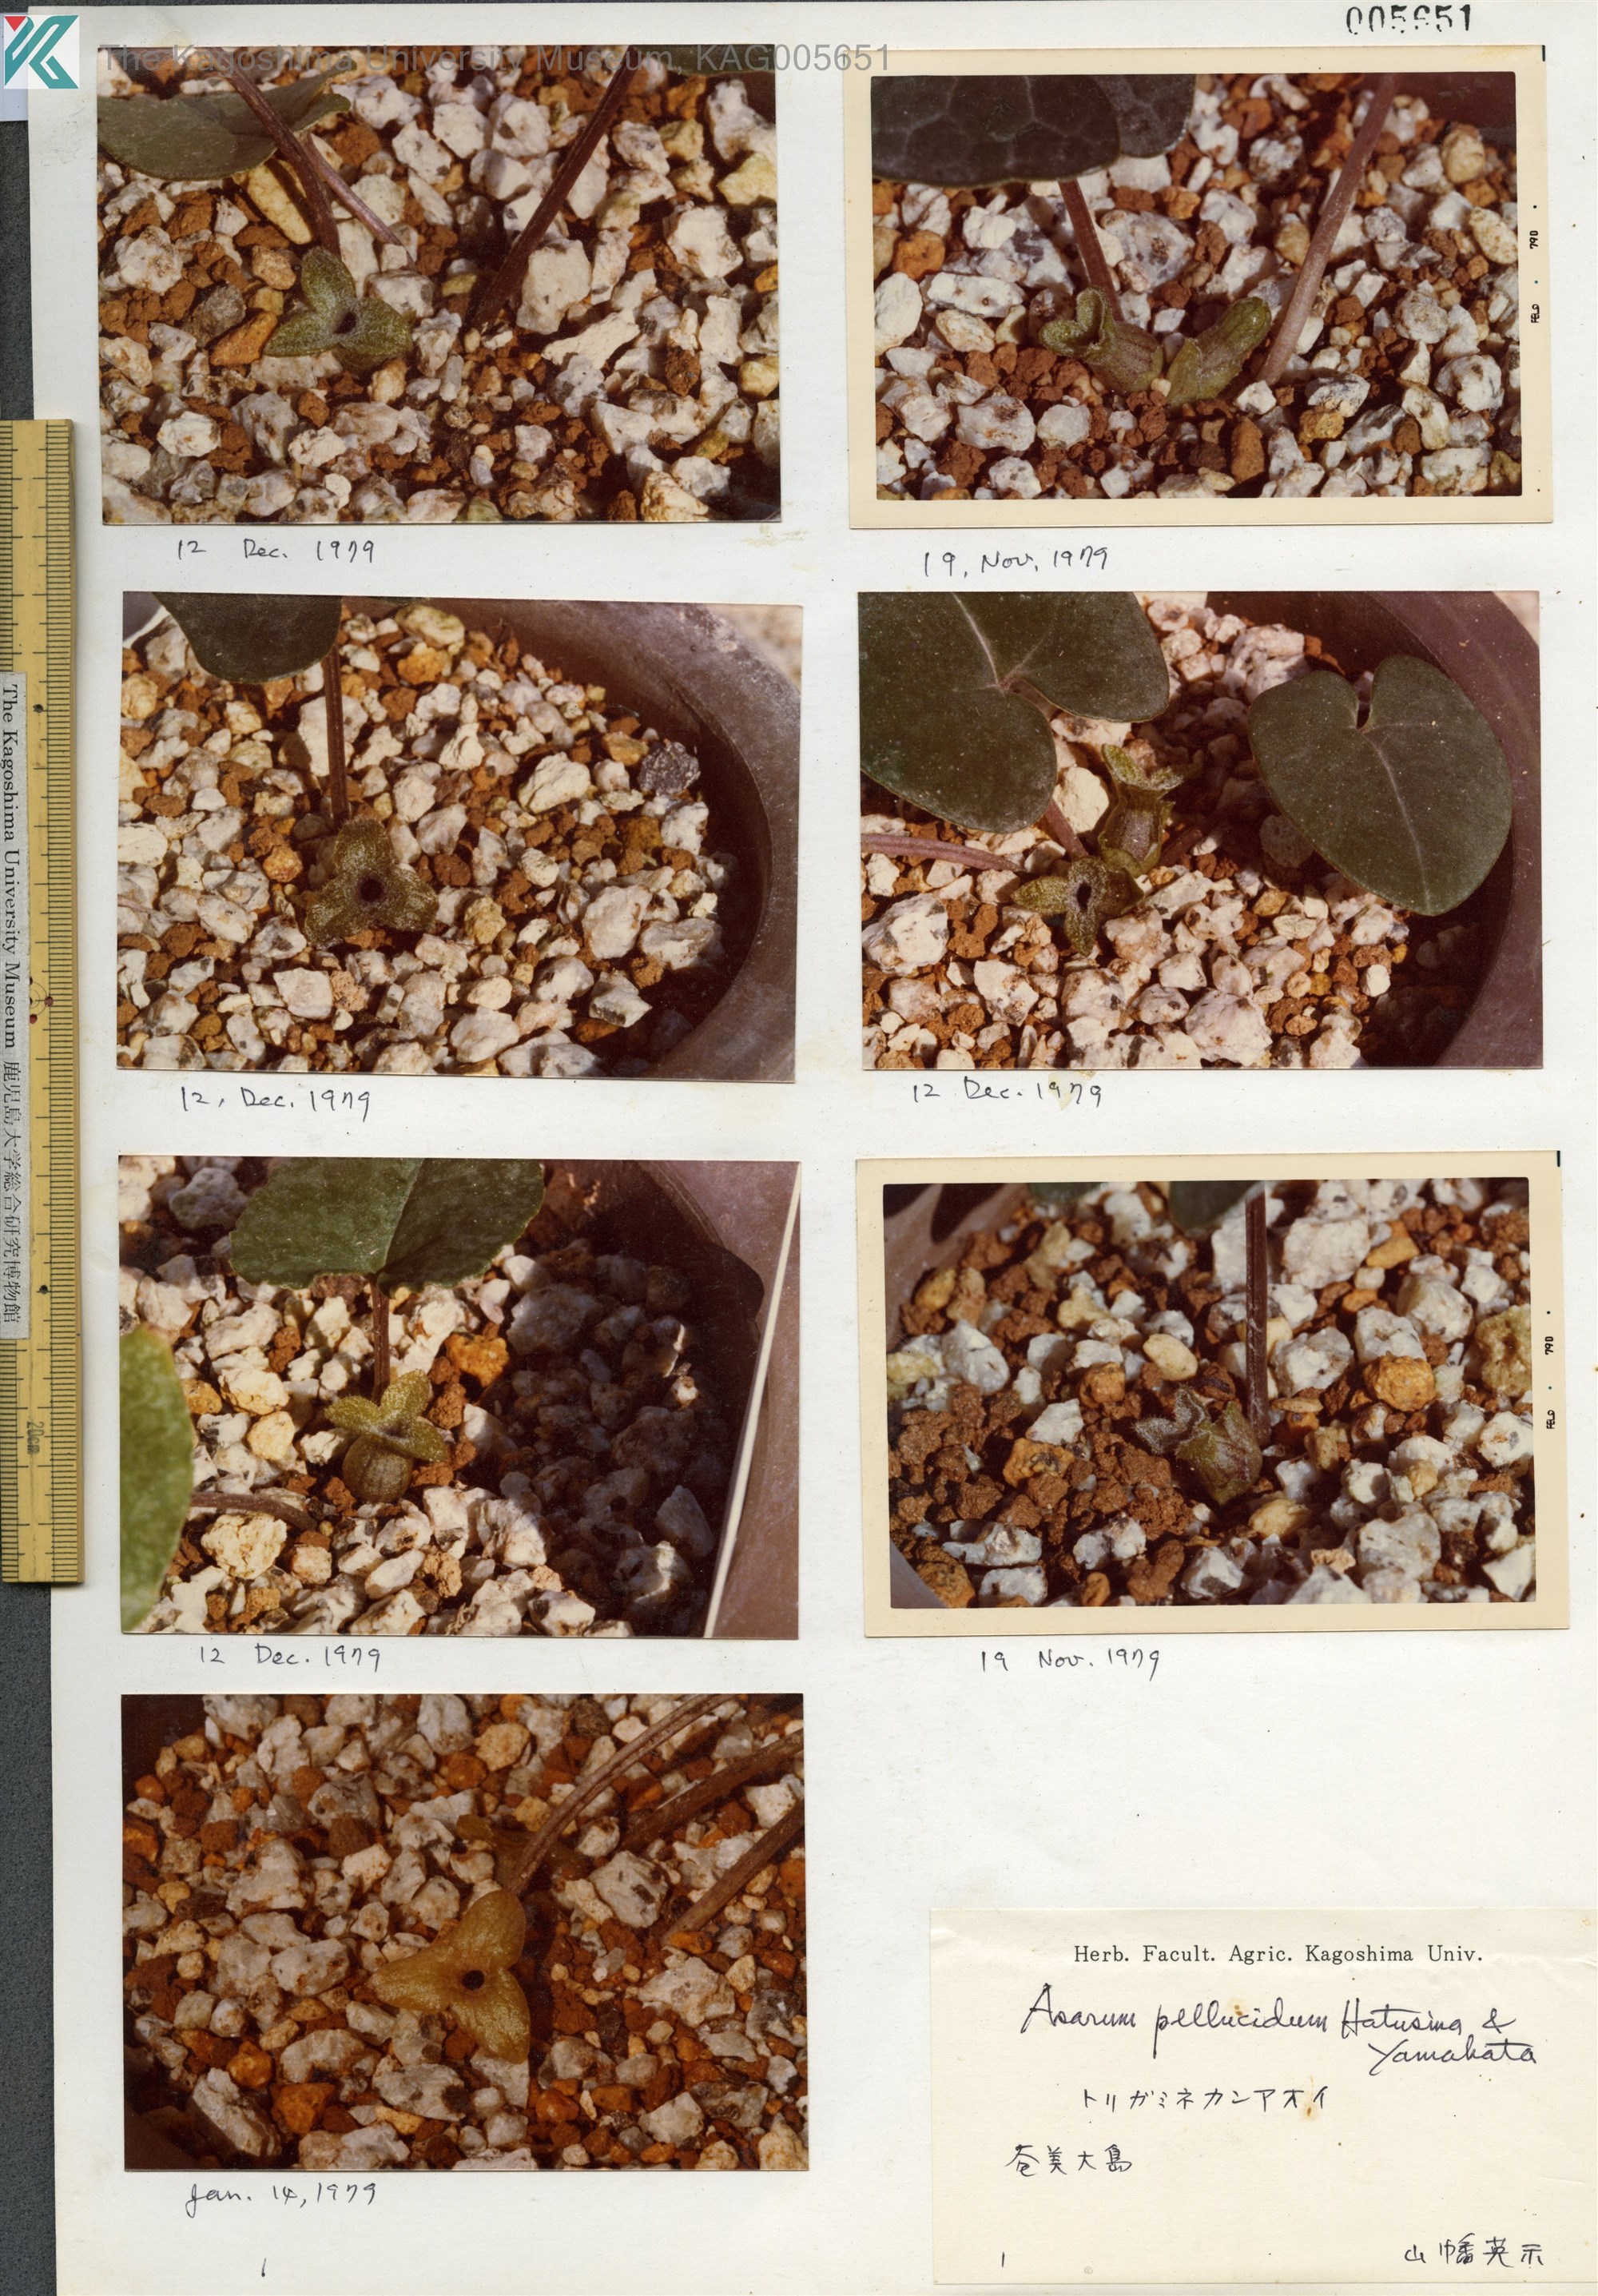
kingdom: Plantae
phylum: Tracheophyta
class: Magnoliopsida
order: Piperales
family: Aristolochiaceae
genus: Asarum
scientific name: Asarum pellucidum
